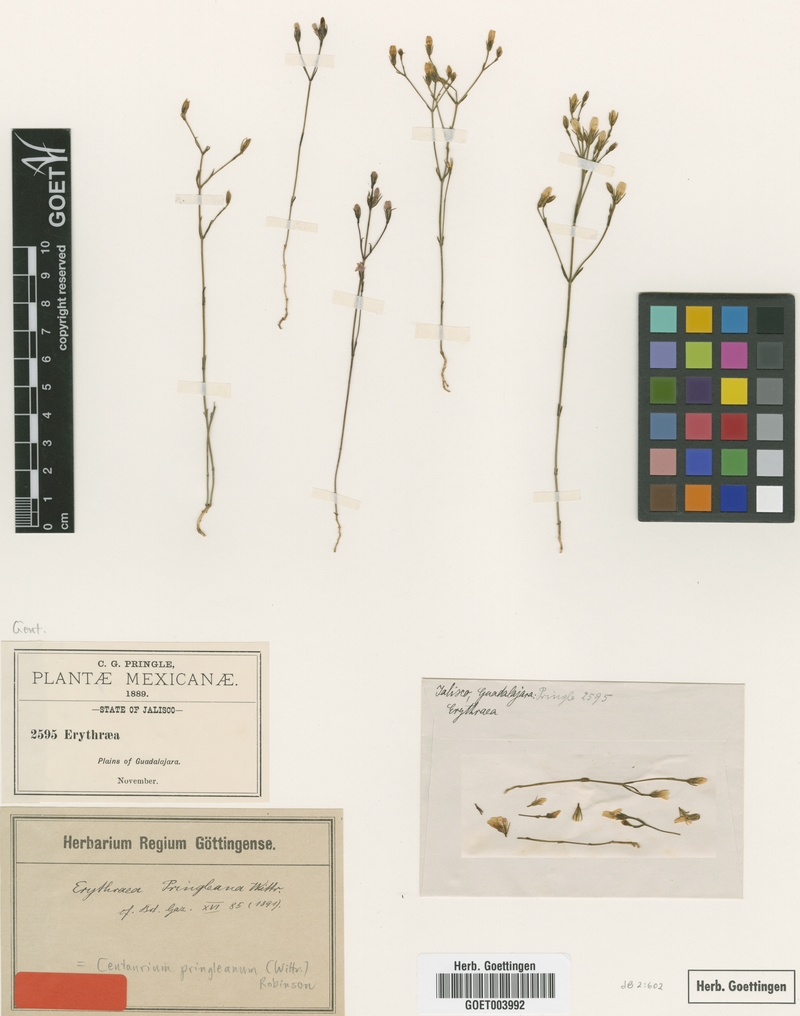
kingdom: Plantae
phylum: Tracheophyta
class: Magnoliopsida
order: Gentianales
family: Gentianaceae
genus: Zeltnera
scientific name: Zeltnera madrensis
